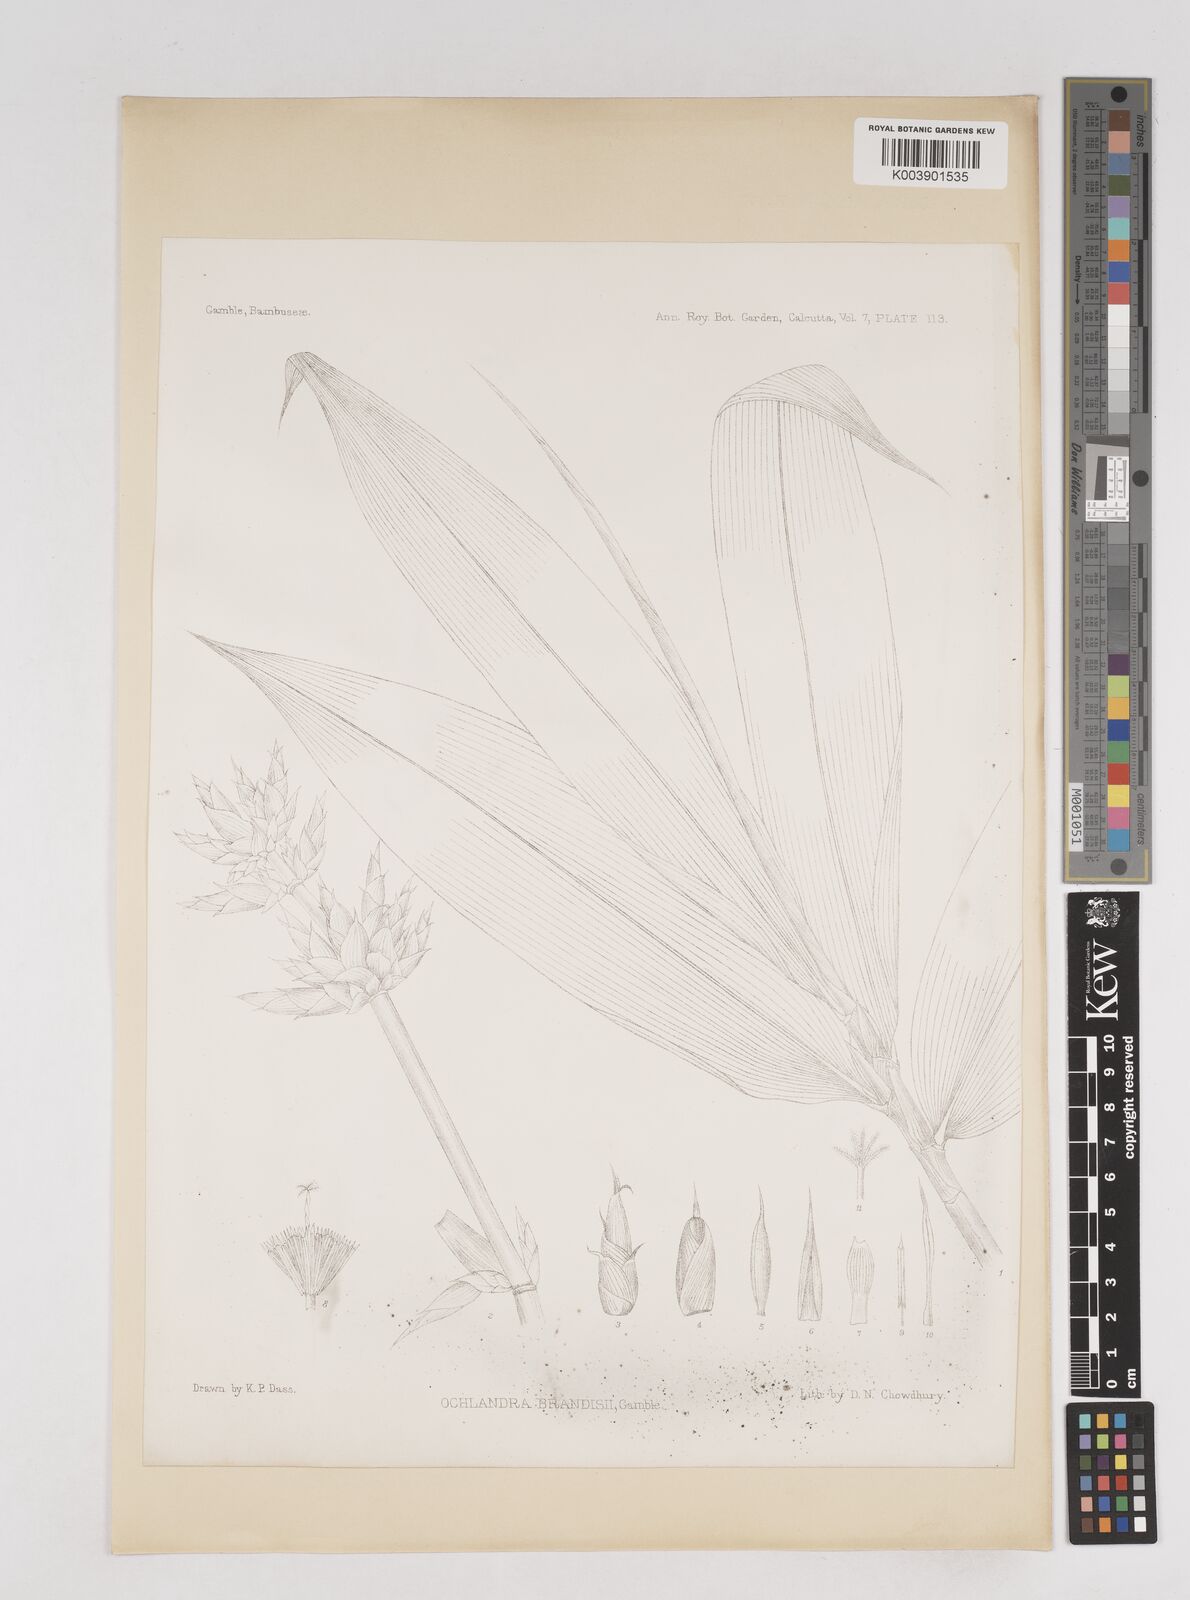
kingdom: Plantae
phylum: Tracheophyta
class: Liliopsida
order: Poales
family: Poaceae
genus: Ochlandra
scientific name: Ochlandra wightii
